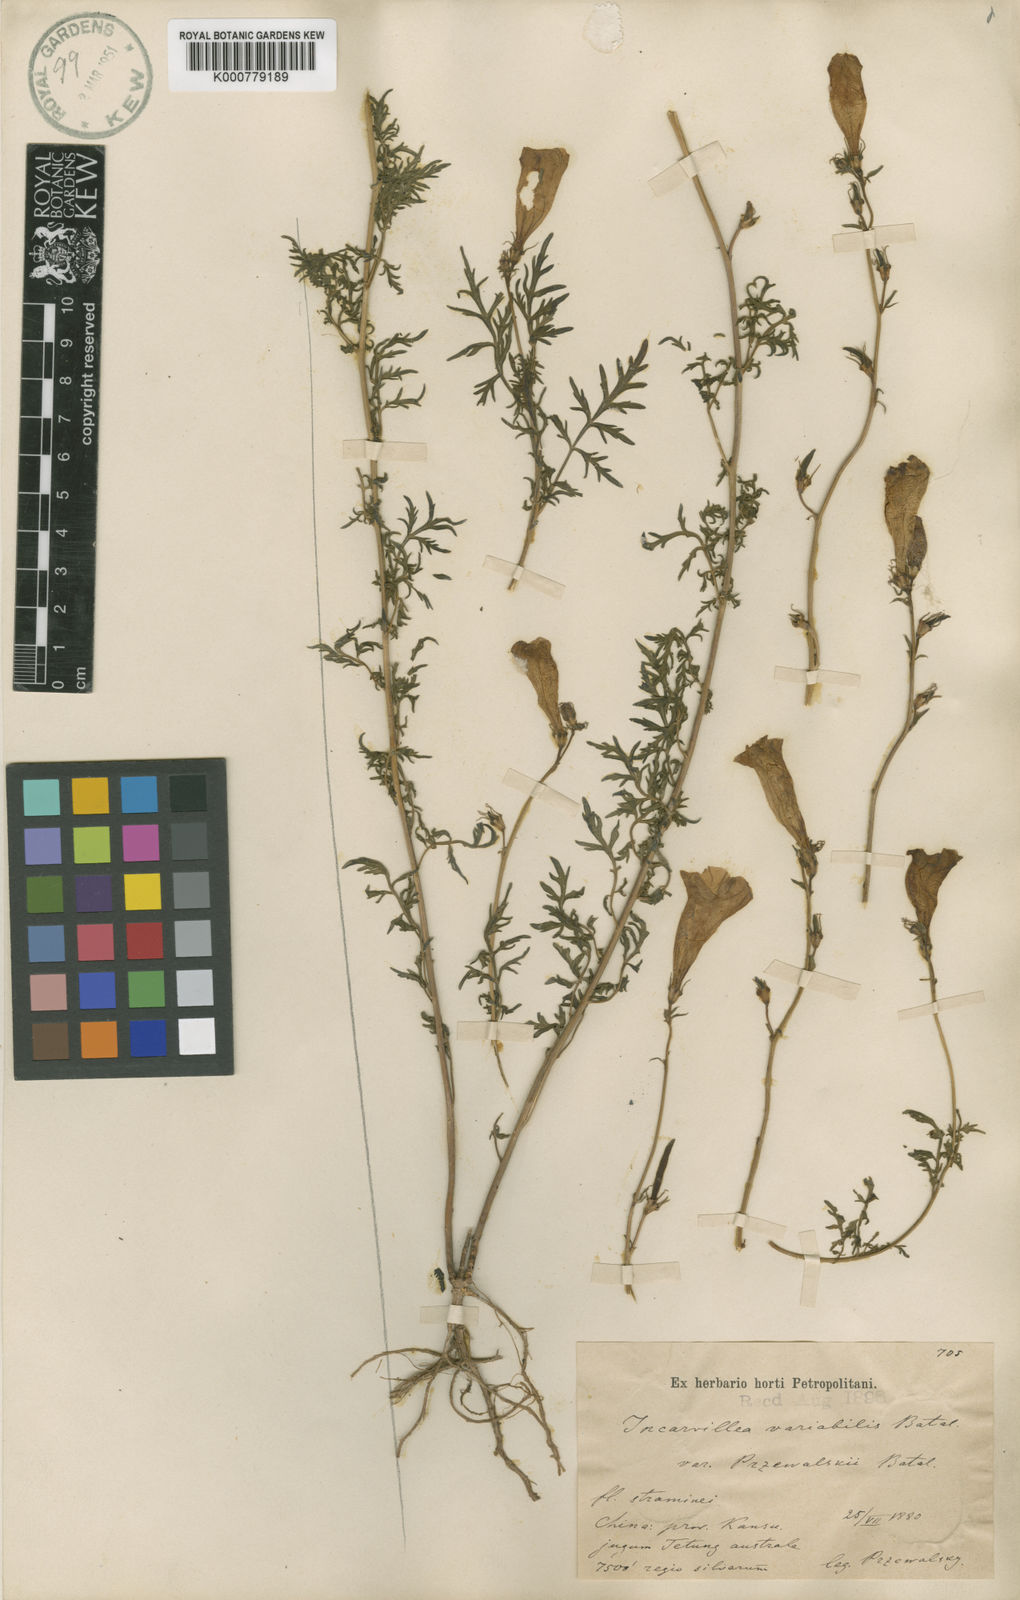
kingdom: Plantae
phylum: Tracheophyta
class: Magnoliopsida
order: Lamiales
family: Bignoniaceae
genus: Incarvillea
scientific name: Incarvillea sinensis
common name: Trumpet-flower
